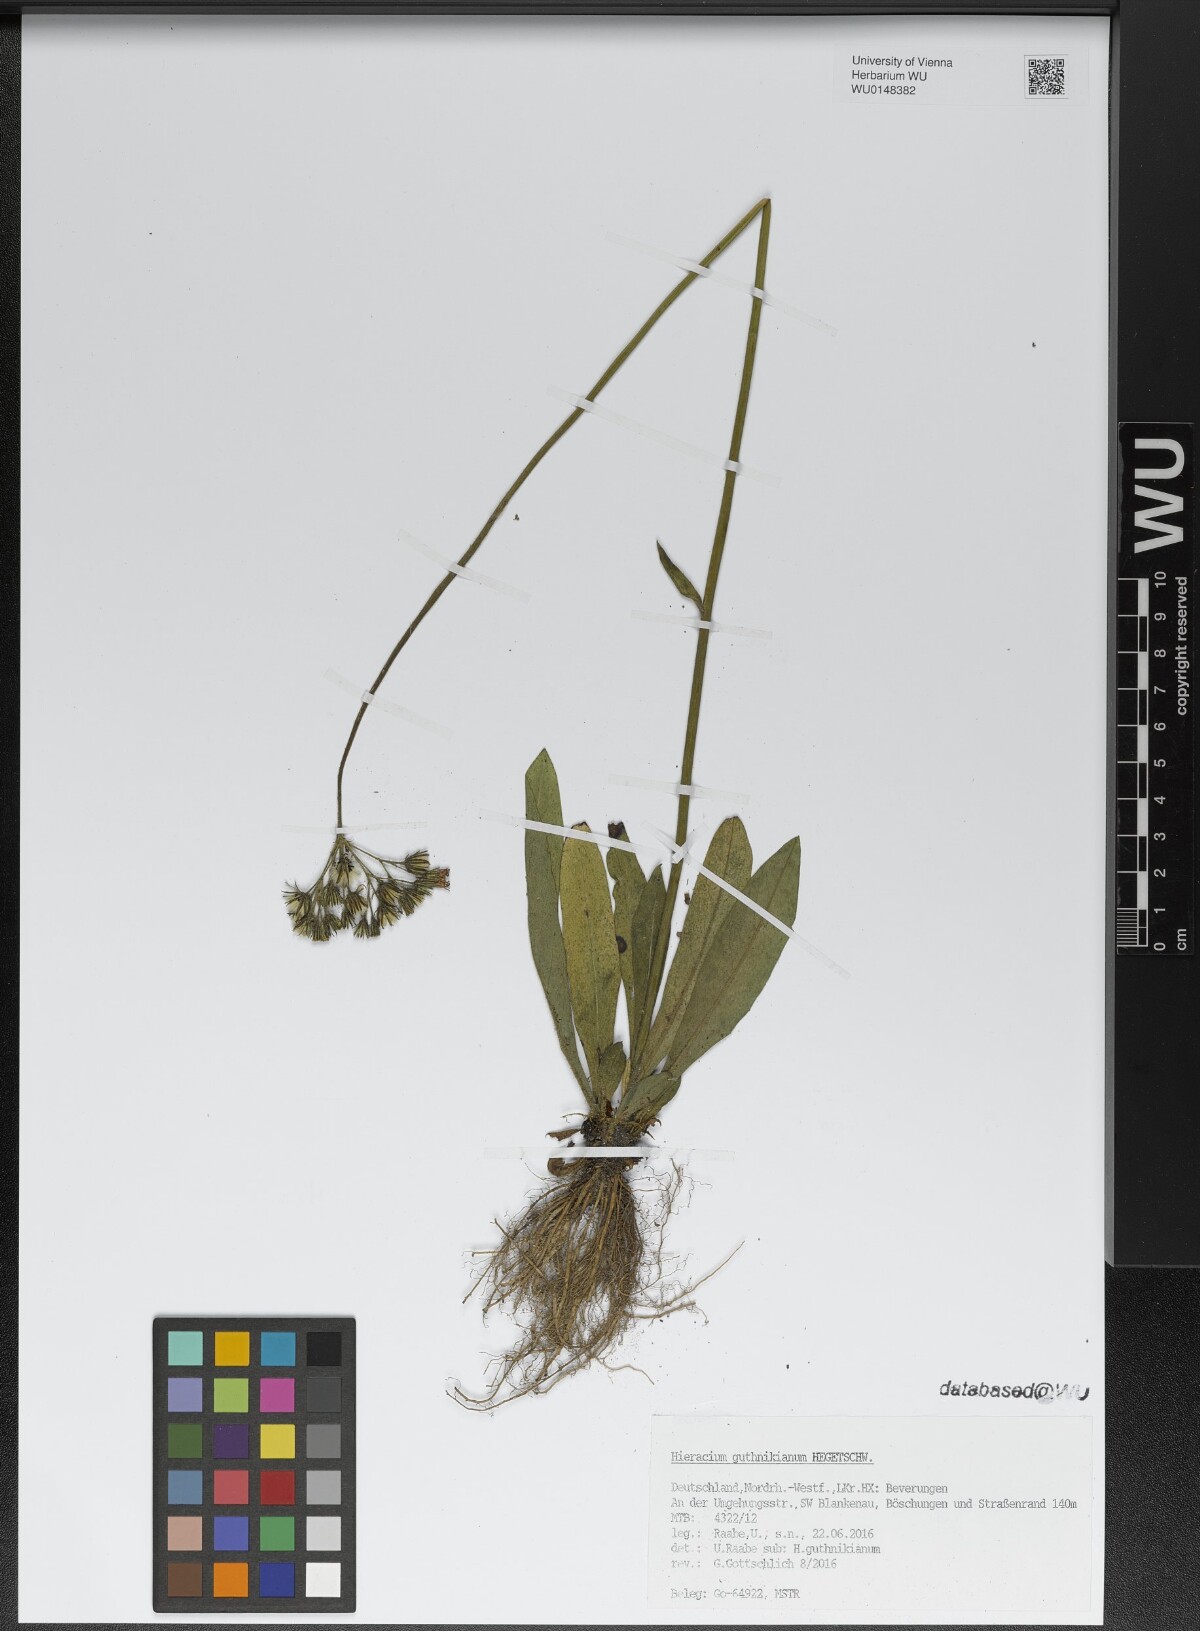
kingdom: Plantae
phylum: Tracheophyta
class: Magnoliopsida
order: Asterales
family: Asteraceae
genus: Pilosella
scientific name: Pilosella guthnikiana
